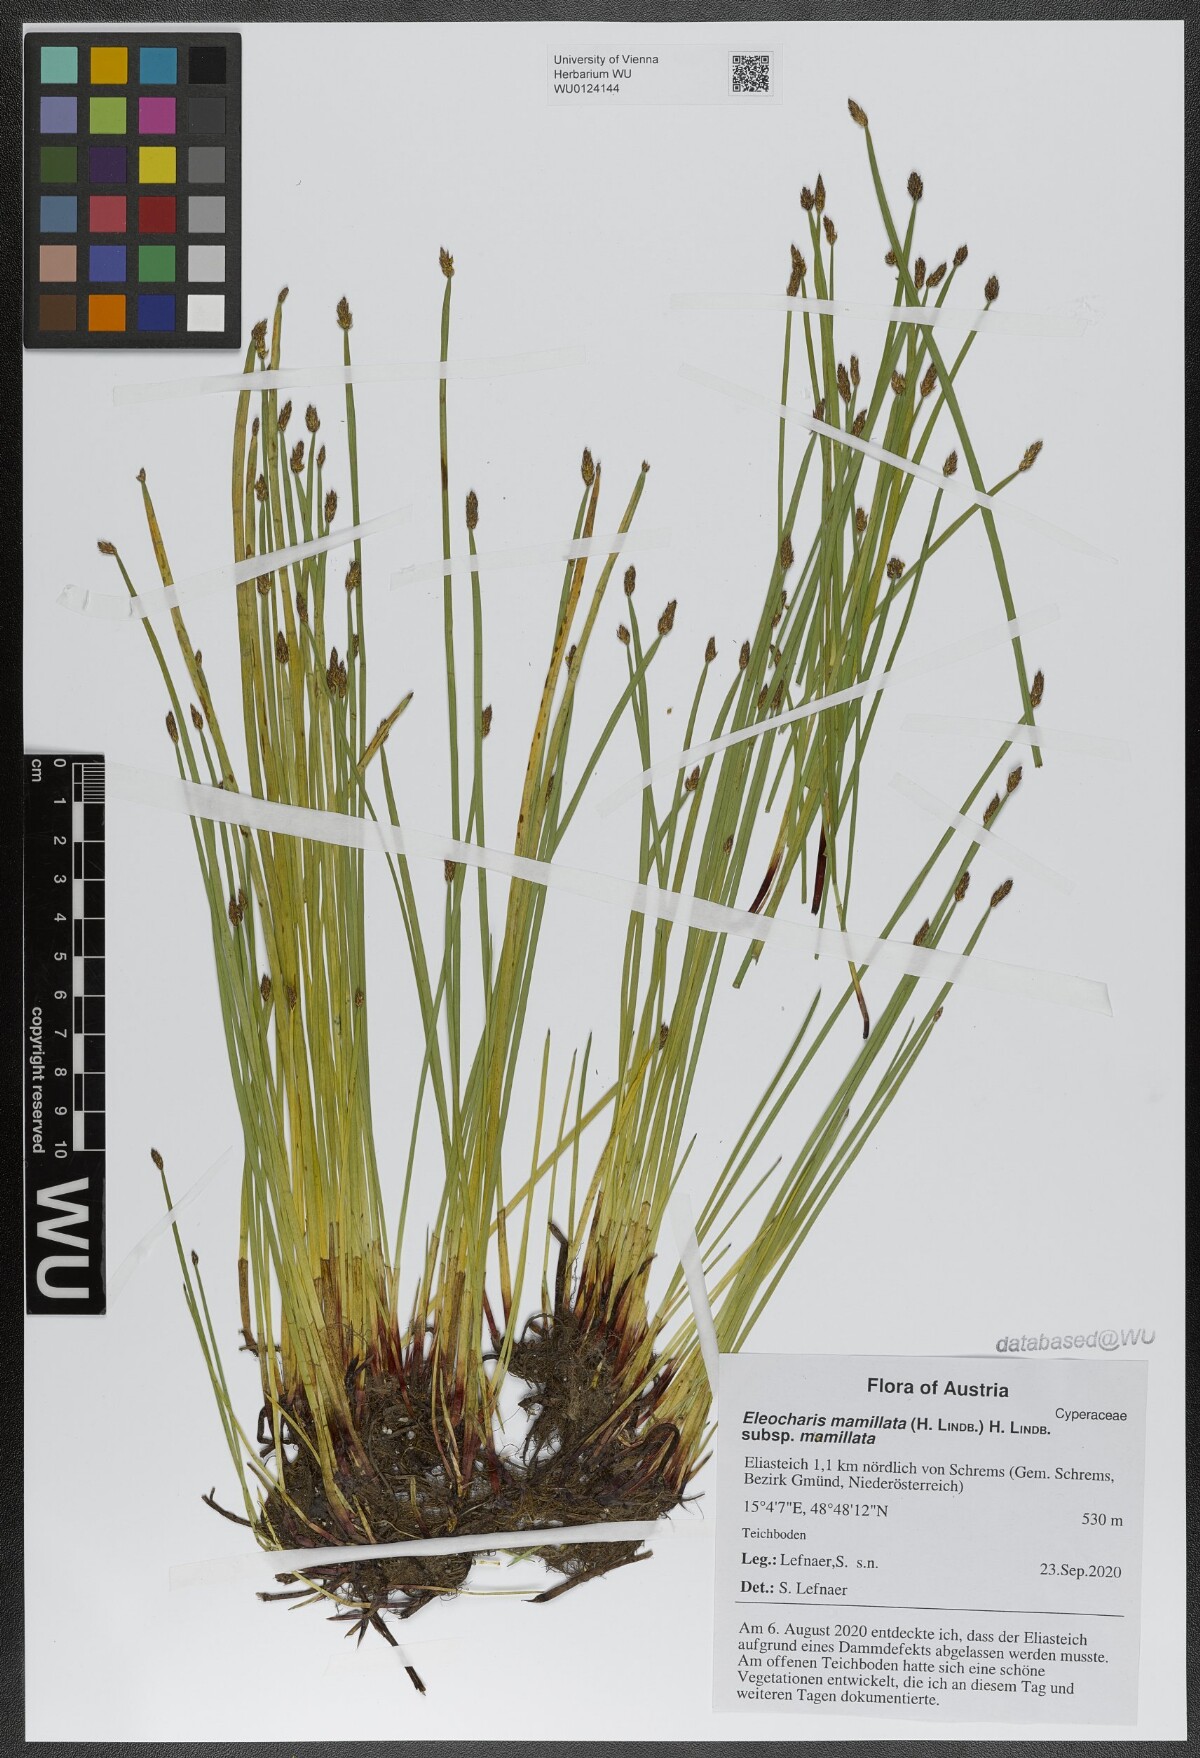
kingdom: Plantae
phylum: Tracheophyta
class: Liliopsida
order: Poales
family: Cyperaceae
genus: Eleocharis
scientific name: Eleocharis mamillata
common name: Northern spike-rush
